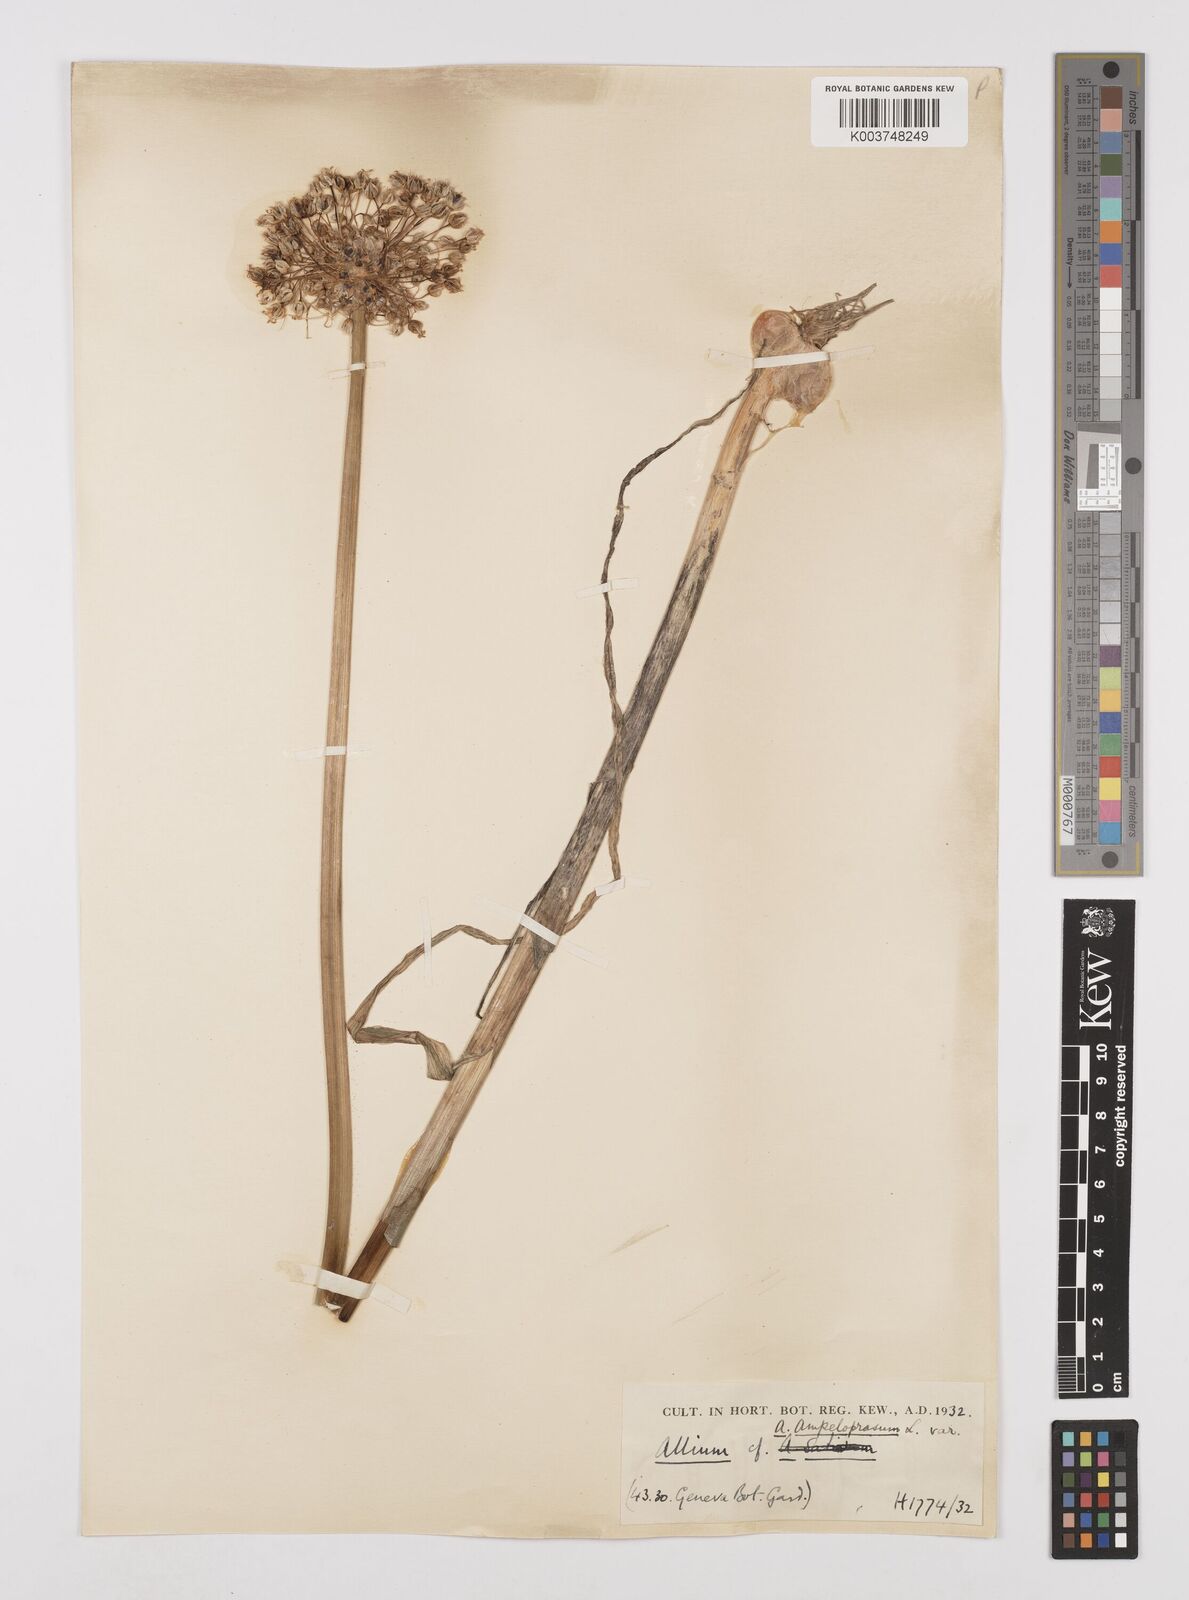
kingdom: Plantae
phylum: Tracheophyta
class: Liliopsida
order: Asparagales
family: Amaryllidaceae
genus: Allium
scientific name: Allium ampeloprasum
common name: Wild leek
